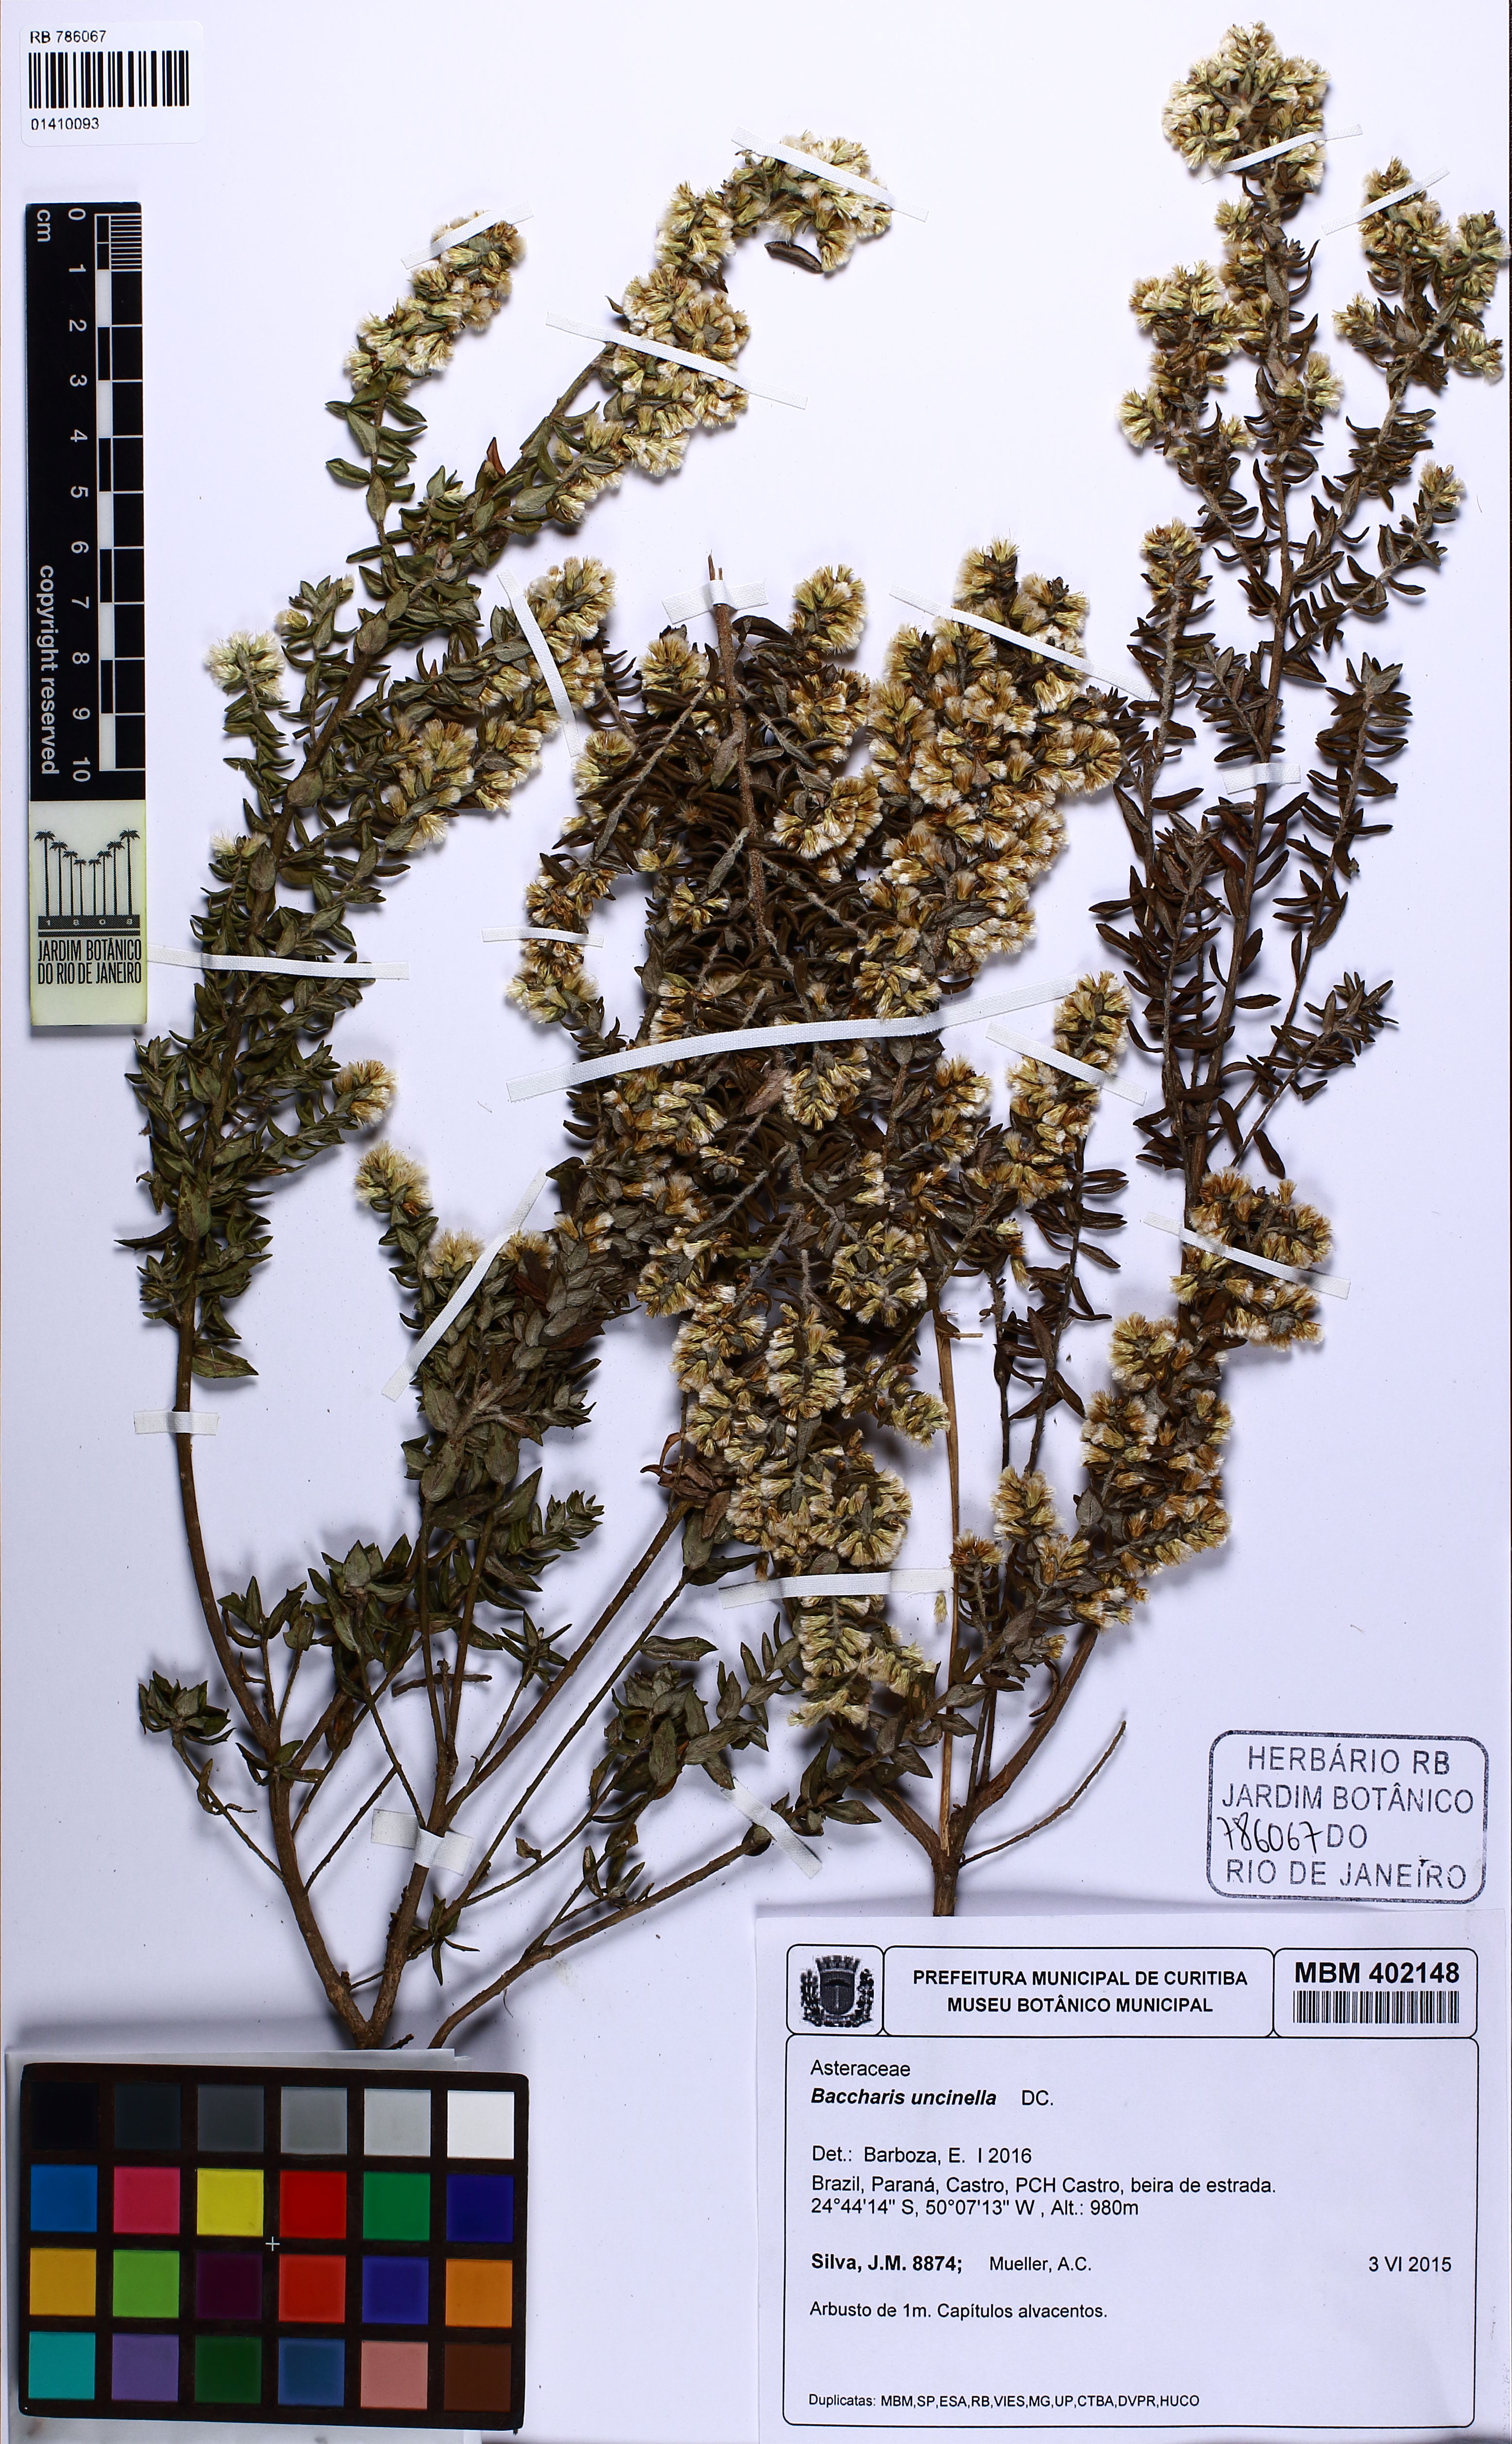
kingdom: Plantae
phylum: Tracheophyta
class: Magnoliopsida
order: Asterales
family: Asteraceae
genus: Baccharis
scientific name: Baccharis uncinella
